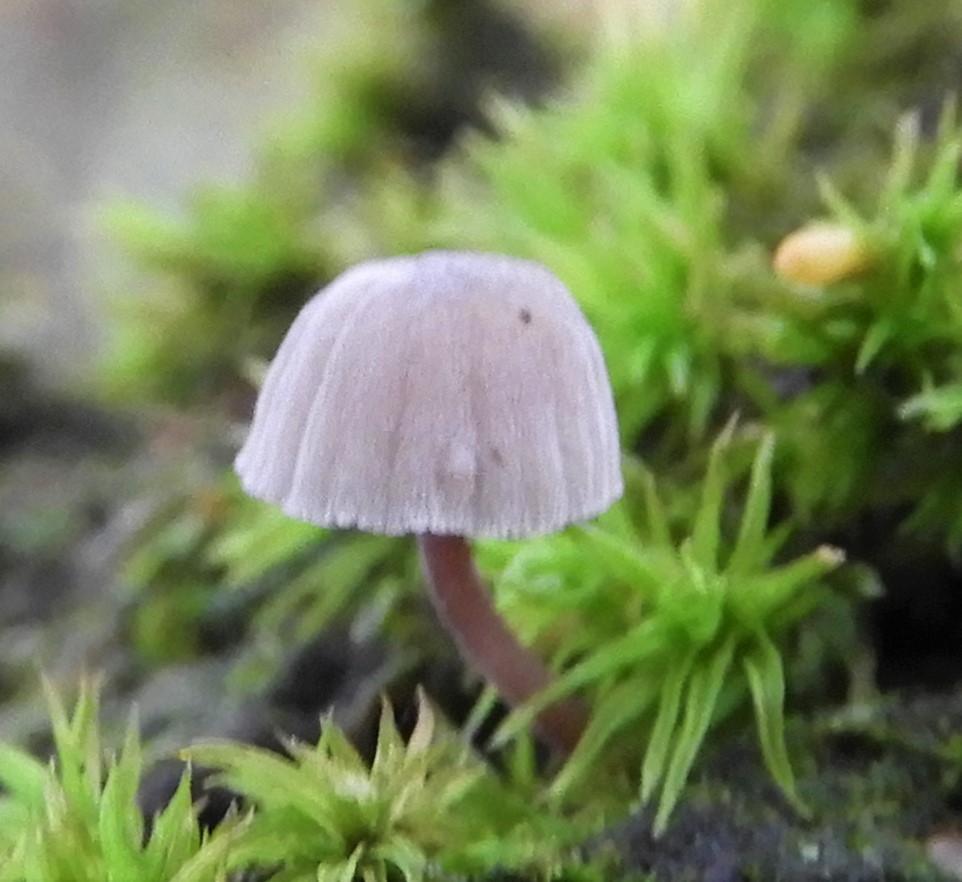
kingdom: Fungi
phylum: Basidiomycota
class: Agaricomycetes
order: Agaricales
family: Mycenaceae
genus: Mycena
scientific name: Mycena meliigena
